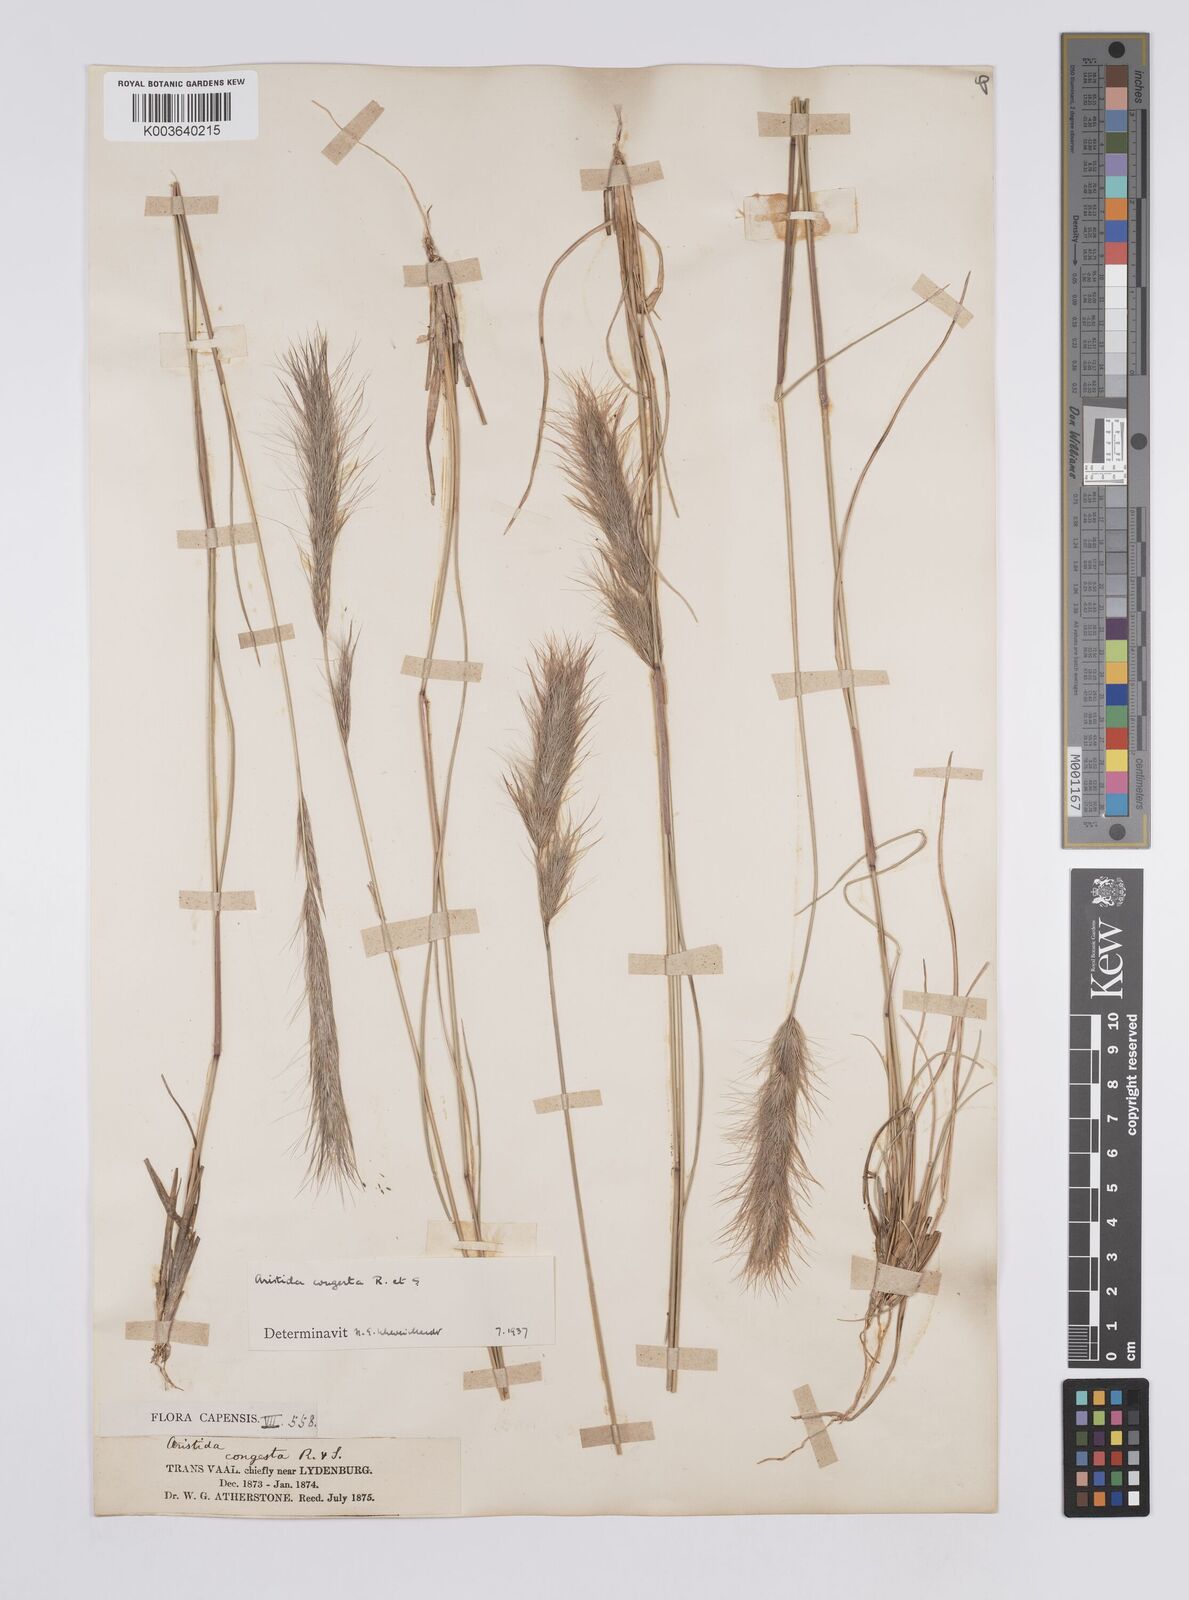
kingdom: Plantae
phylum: Tracheophyta
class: Liliopsida
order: Poales
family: Poaceae
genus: Aristida
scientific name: Aristida congesta
